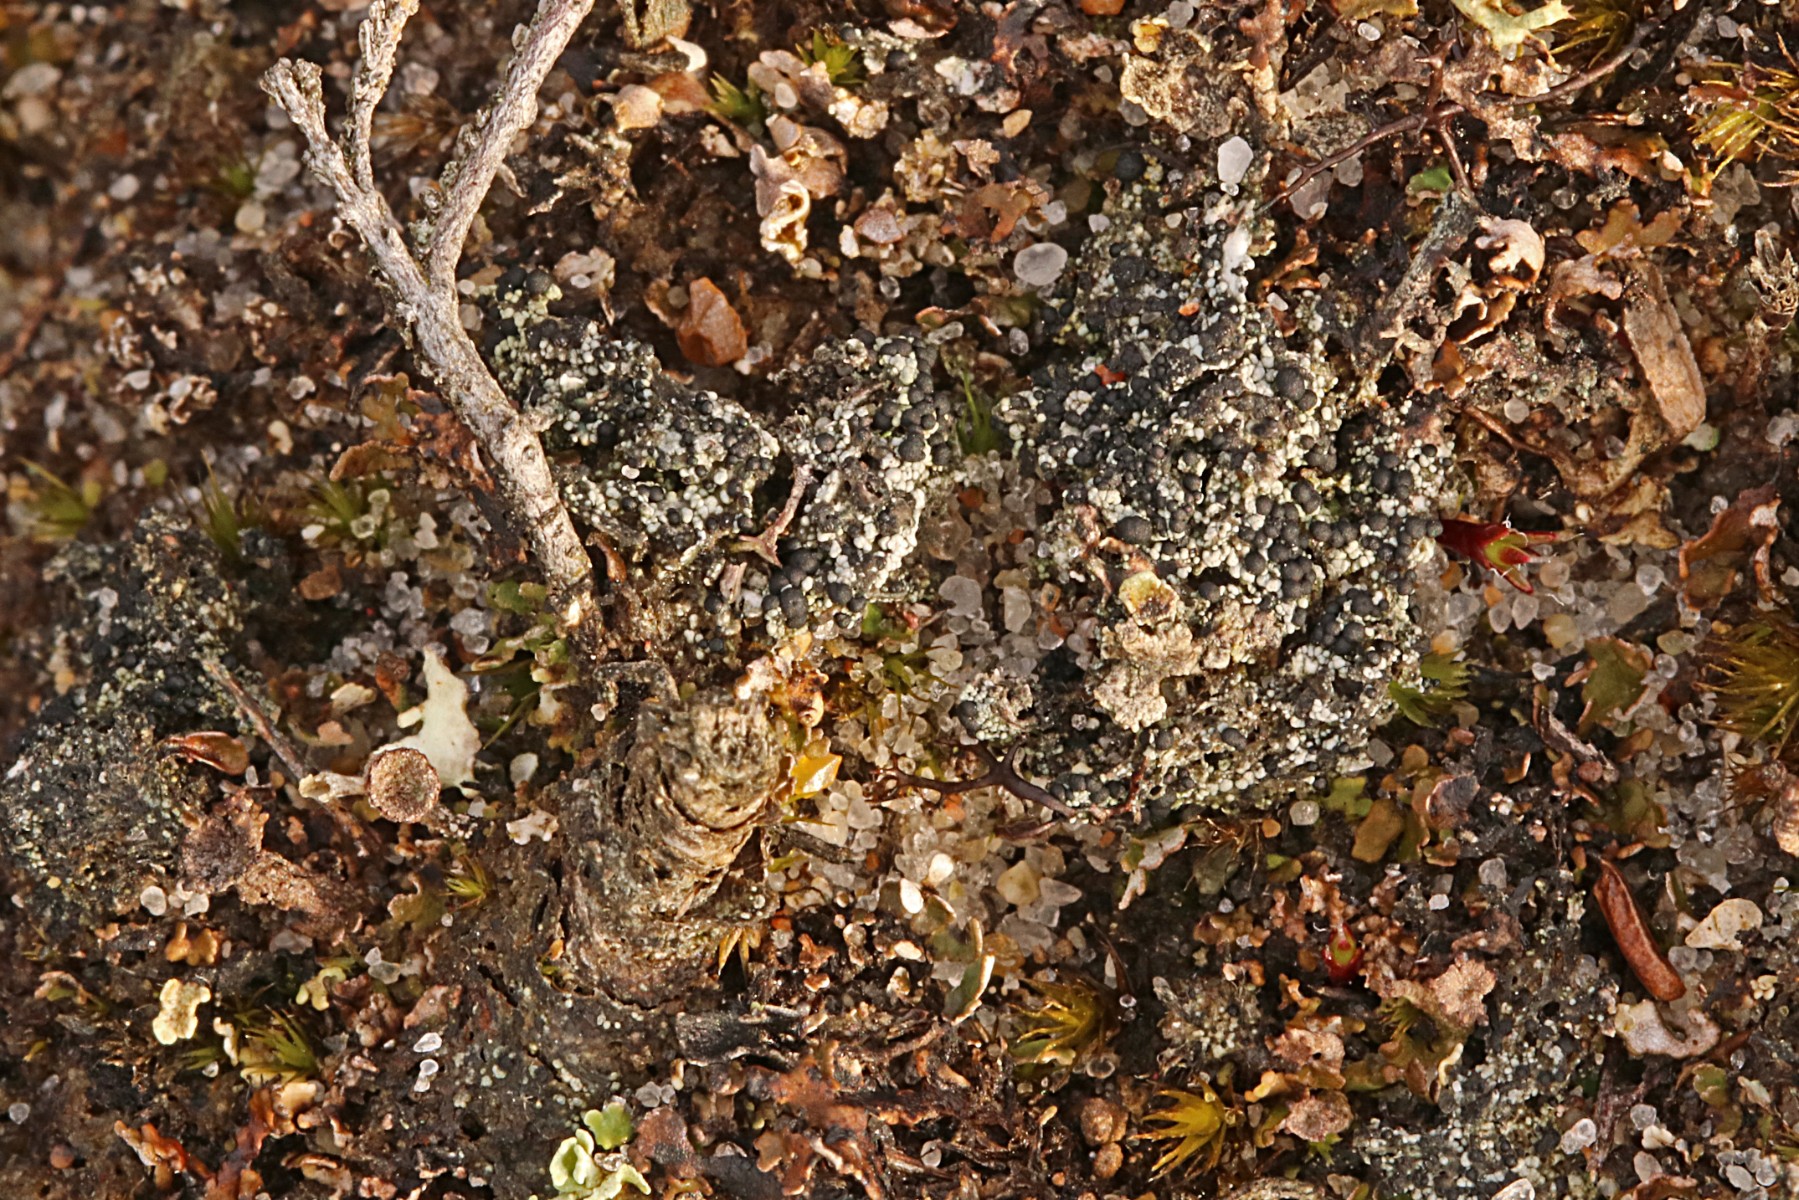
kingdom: Fungi
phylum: Ascomycota
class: Lecanoromycetes
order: Lecanorales
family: Byssolomataceae
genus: Micarea
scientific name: Micarea lignaria
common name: tørve-knaplav
